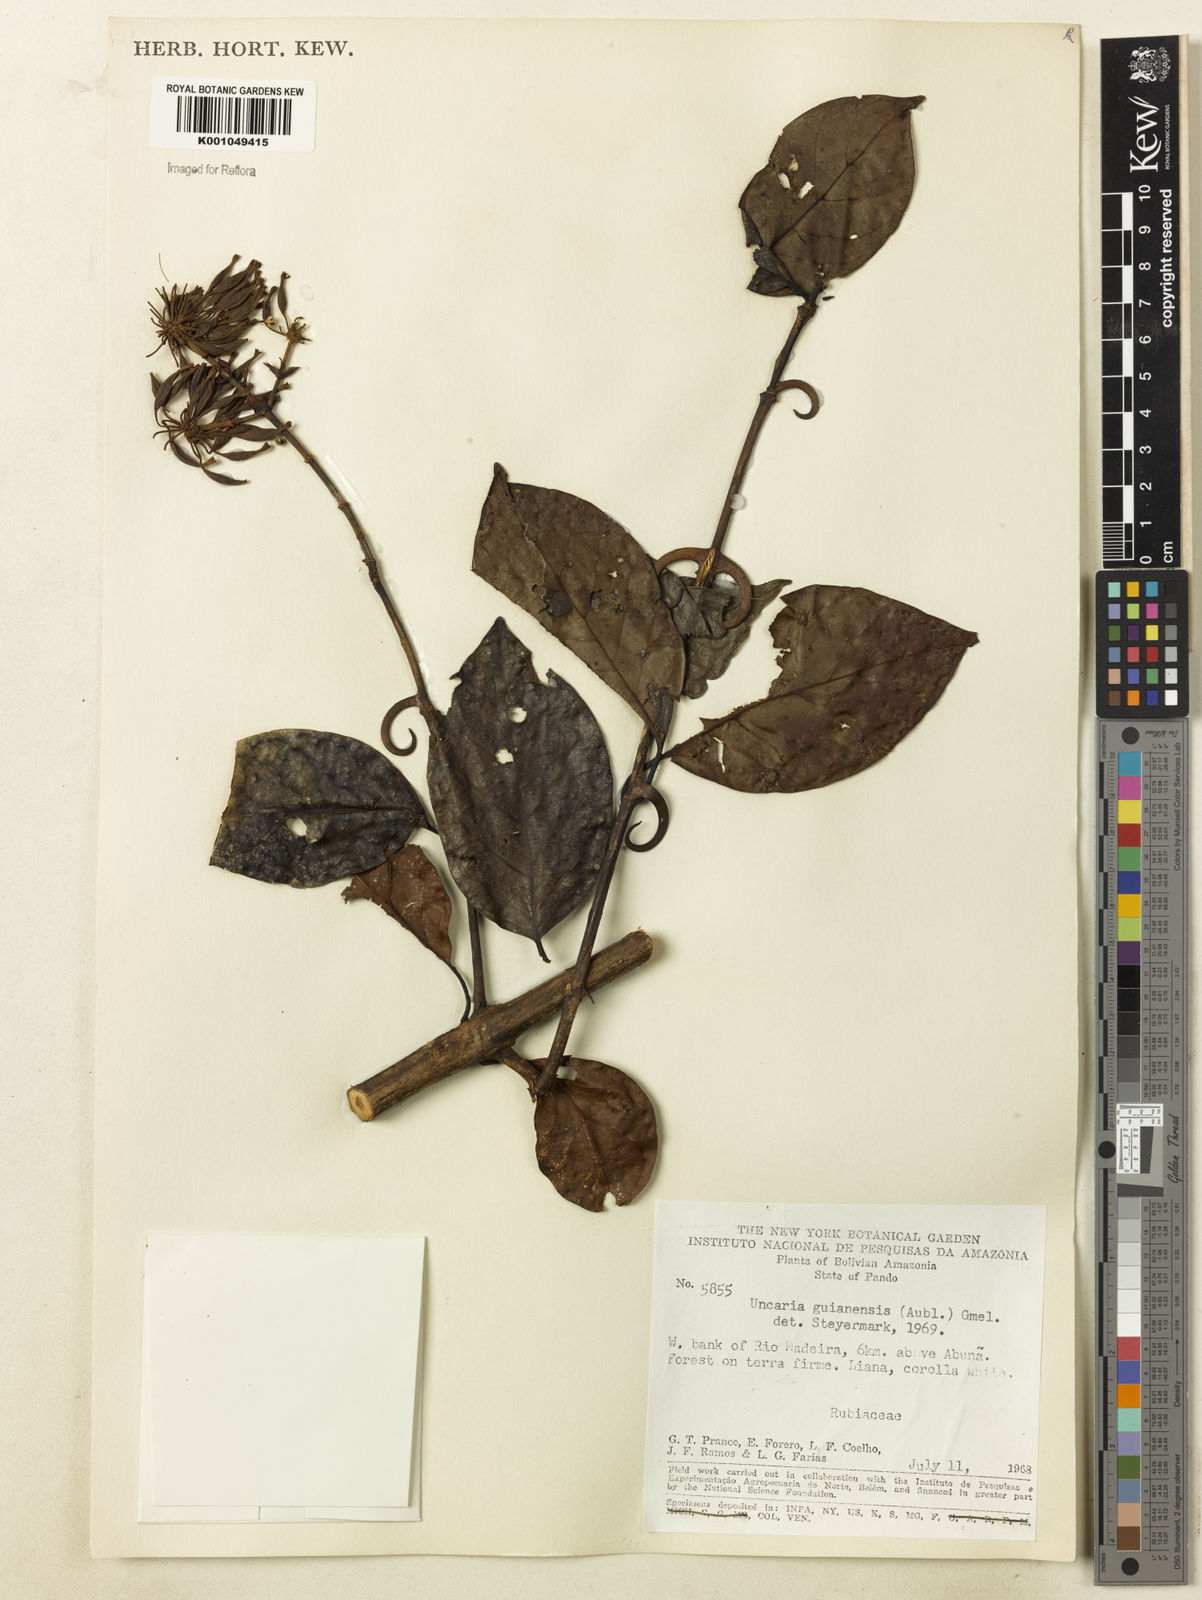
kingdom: Plantae
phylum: Tracheophyta
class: Magnoliopsida
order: Gentianales
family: Rubiaceae
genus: Uncaria
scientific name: Uncaria guianensis
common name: Cat's-claw
